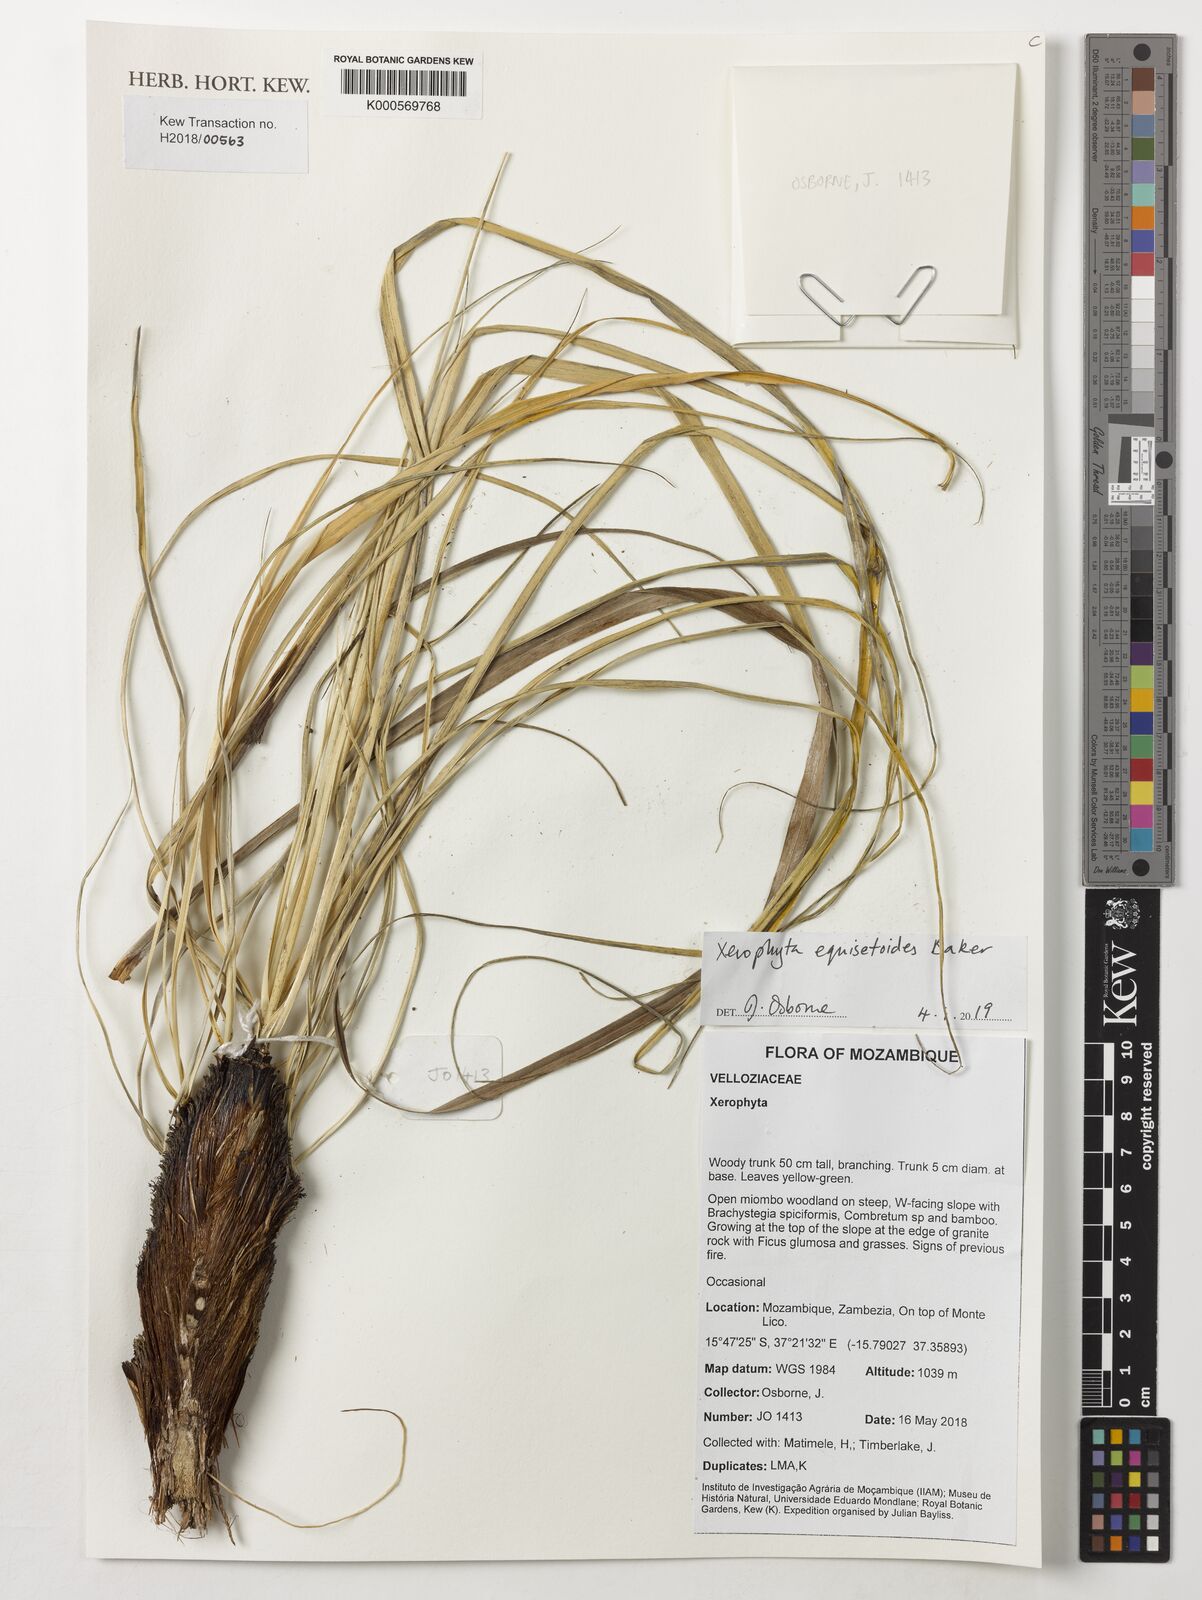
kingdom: Plantae
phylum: Tracheophyta
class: Liliopsida
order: Pandanales
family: Velloziaceae
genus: Xerophyta
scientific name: Xerophyta equisetoides
